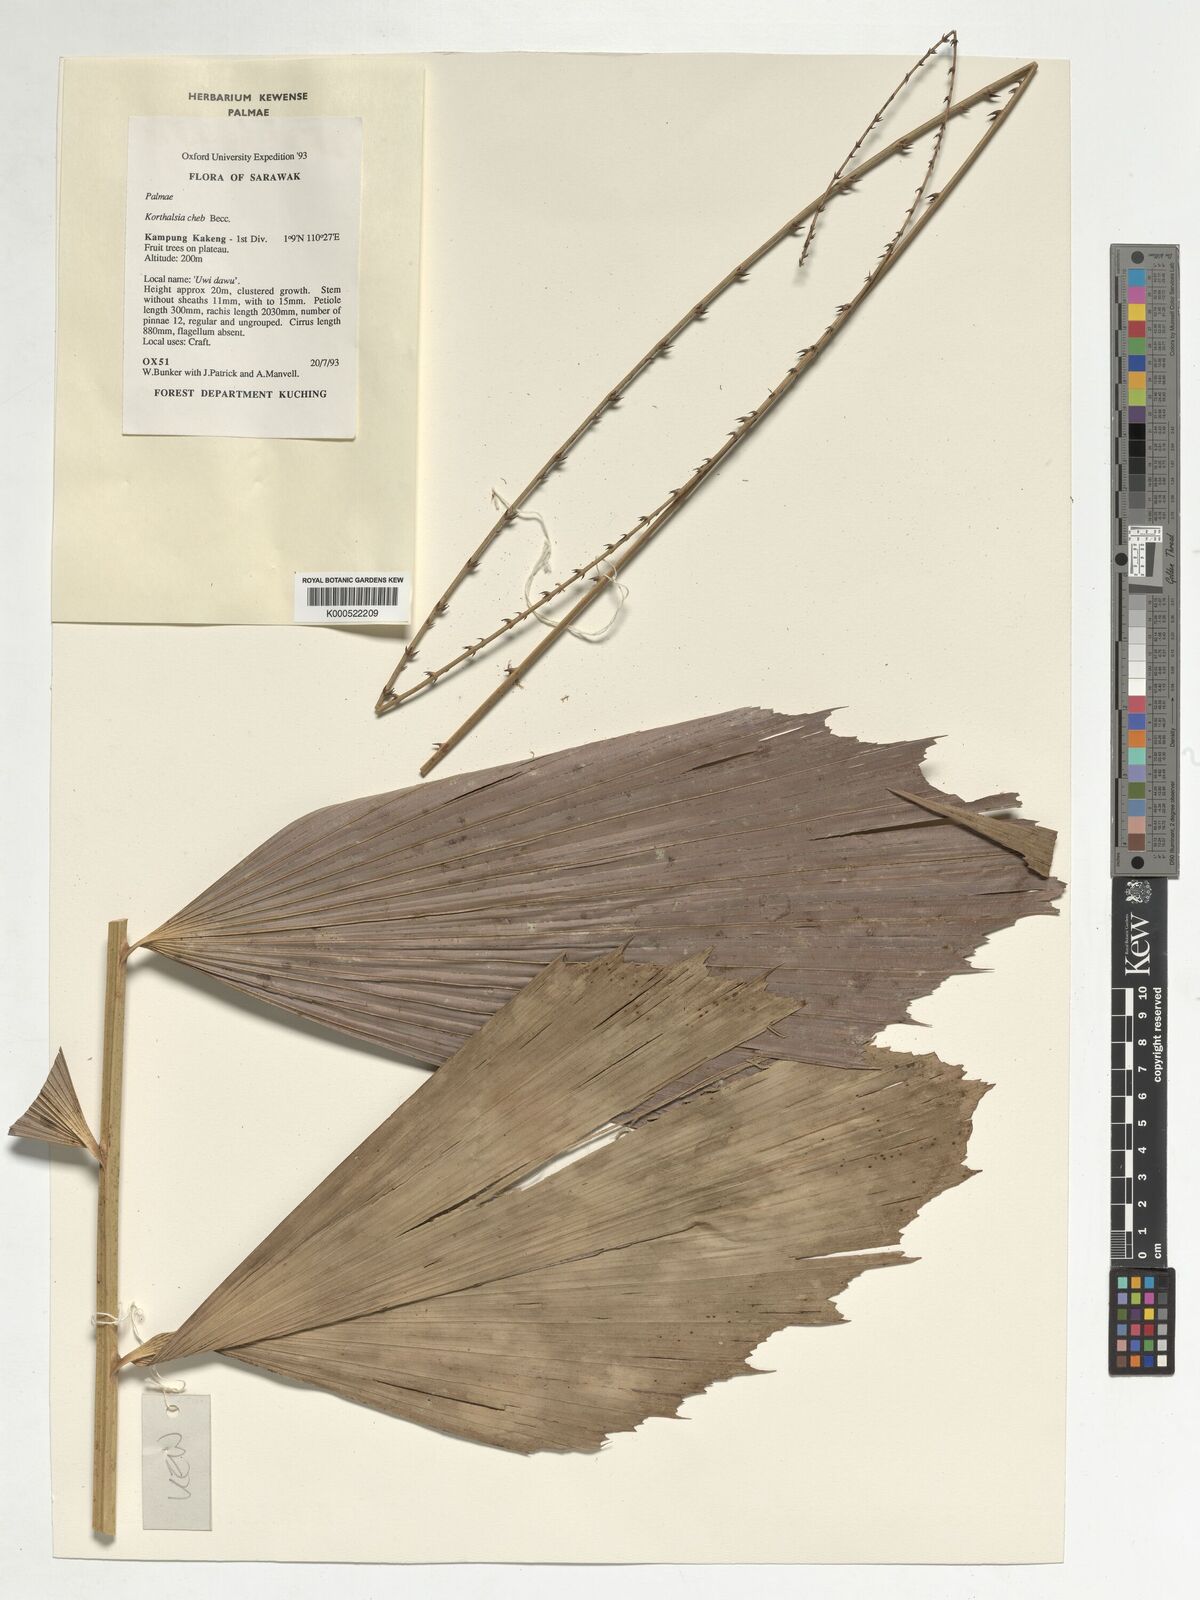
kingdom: Plantae
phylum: Tracheophyta
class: Liliopsida
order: Arecales
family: Arecaceae
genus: Korthalsia
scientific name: Korthalsia cheb
